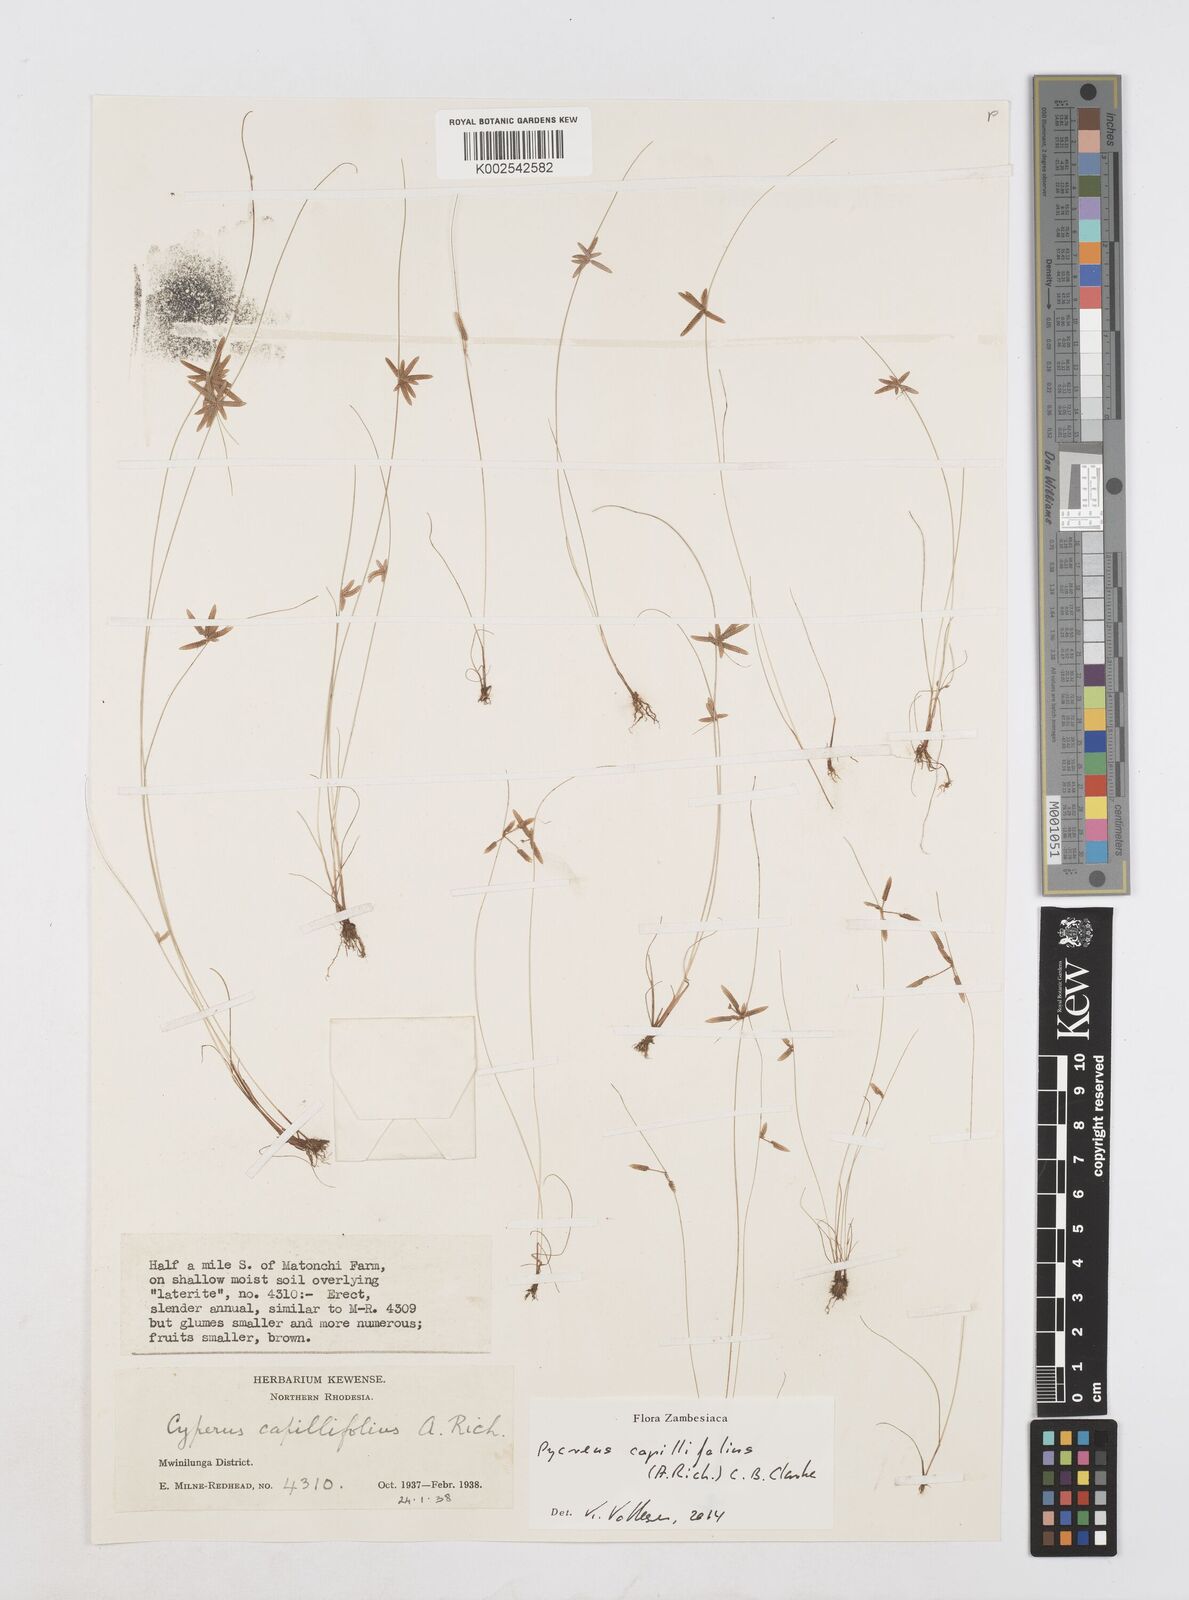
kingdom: Plantae
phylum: Tracheophyta
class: Liliopsida
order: Poales
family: Cyperaceae
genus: Cyperus
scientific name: Cyperus capillifolius
